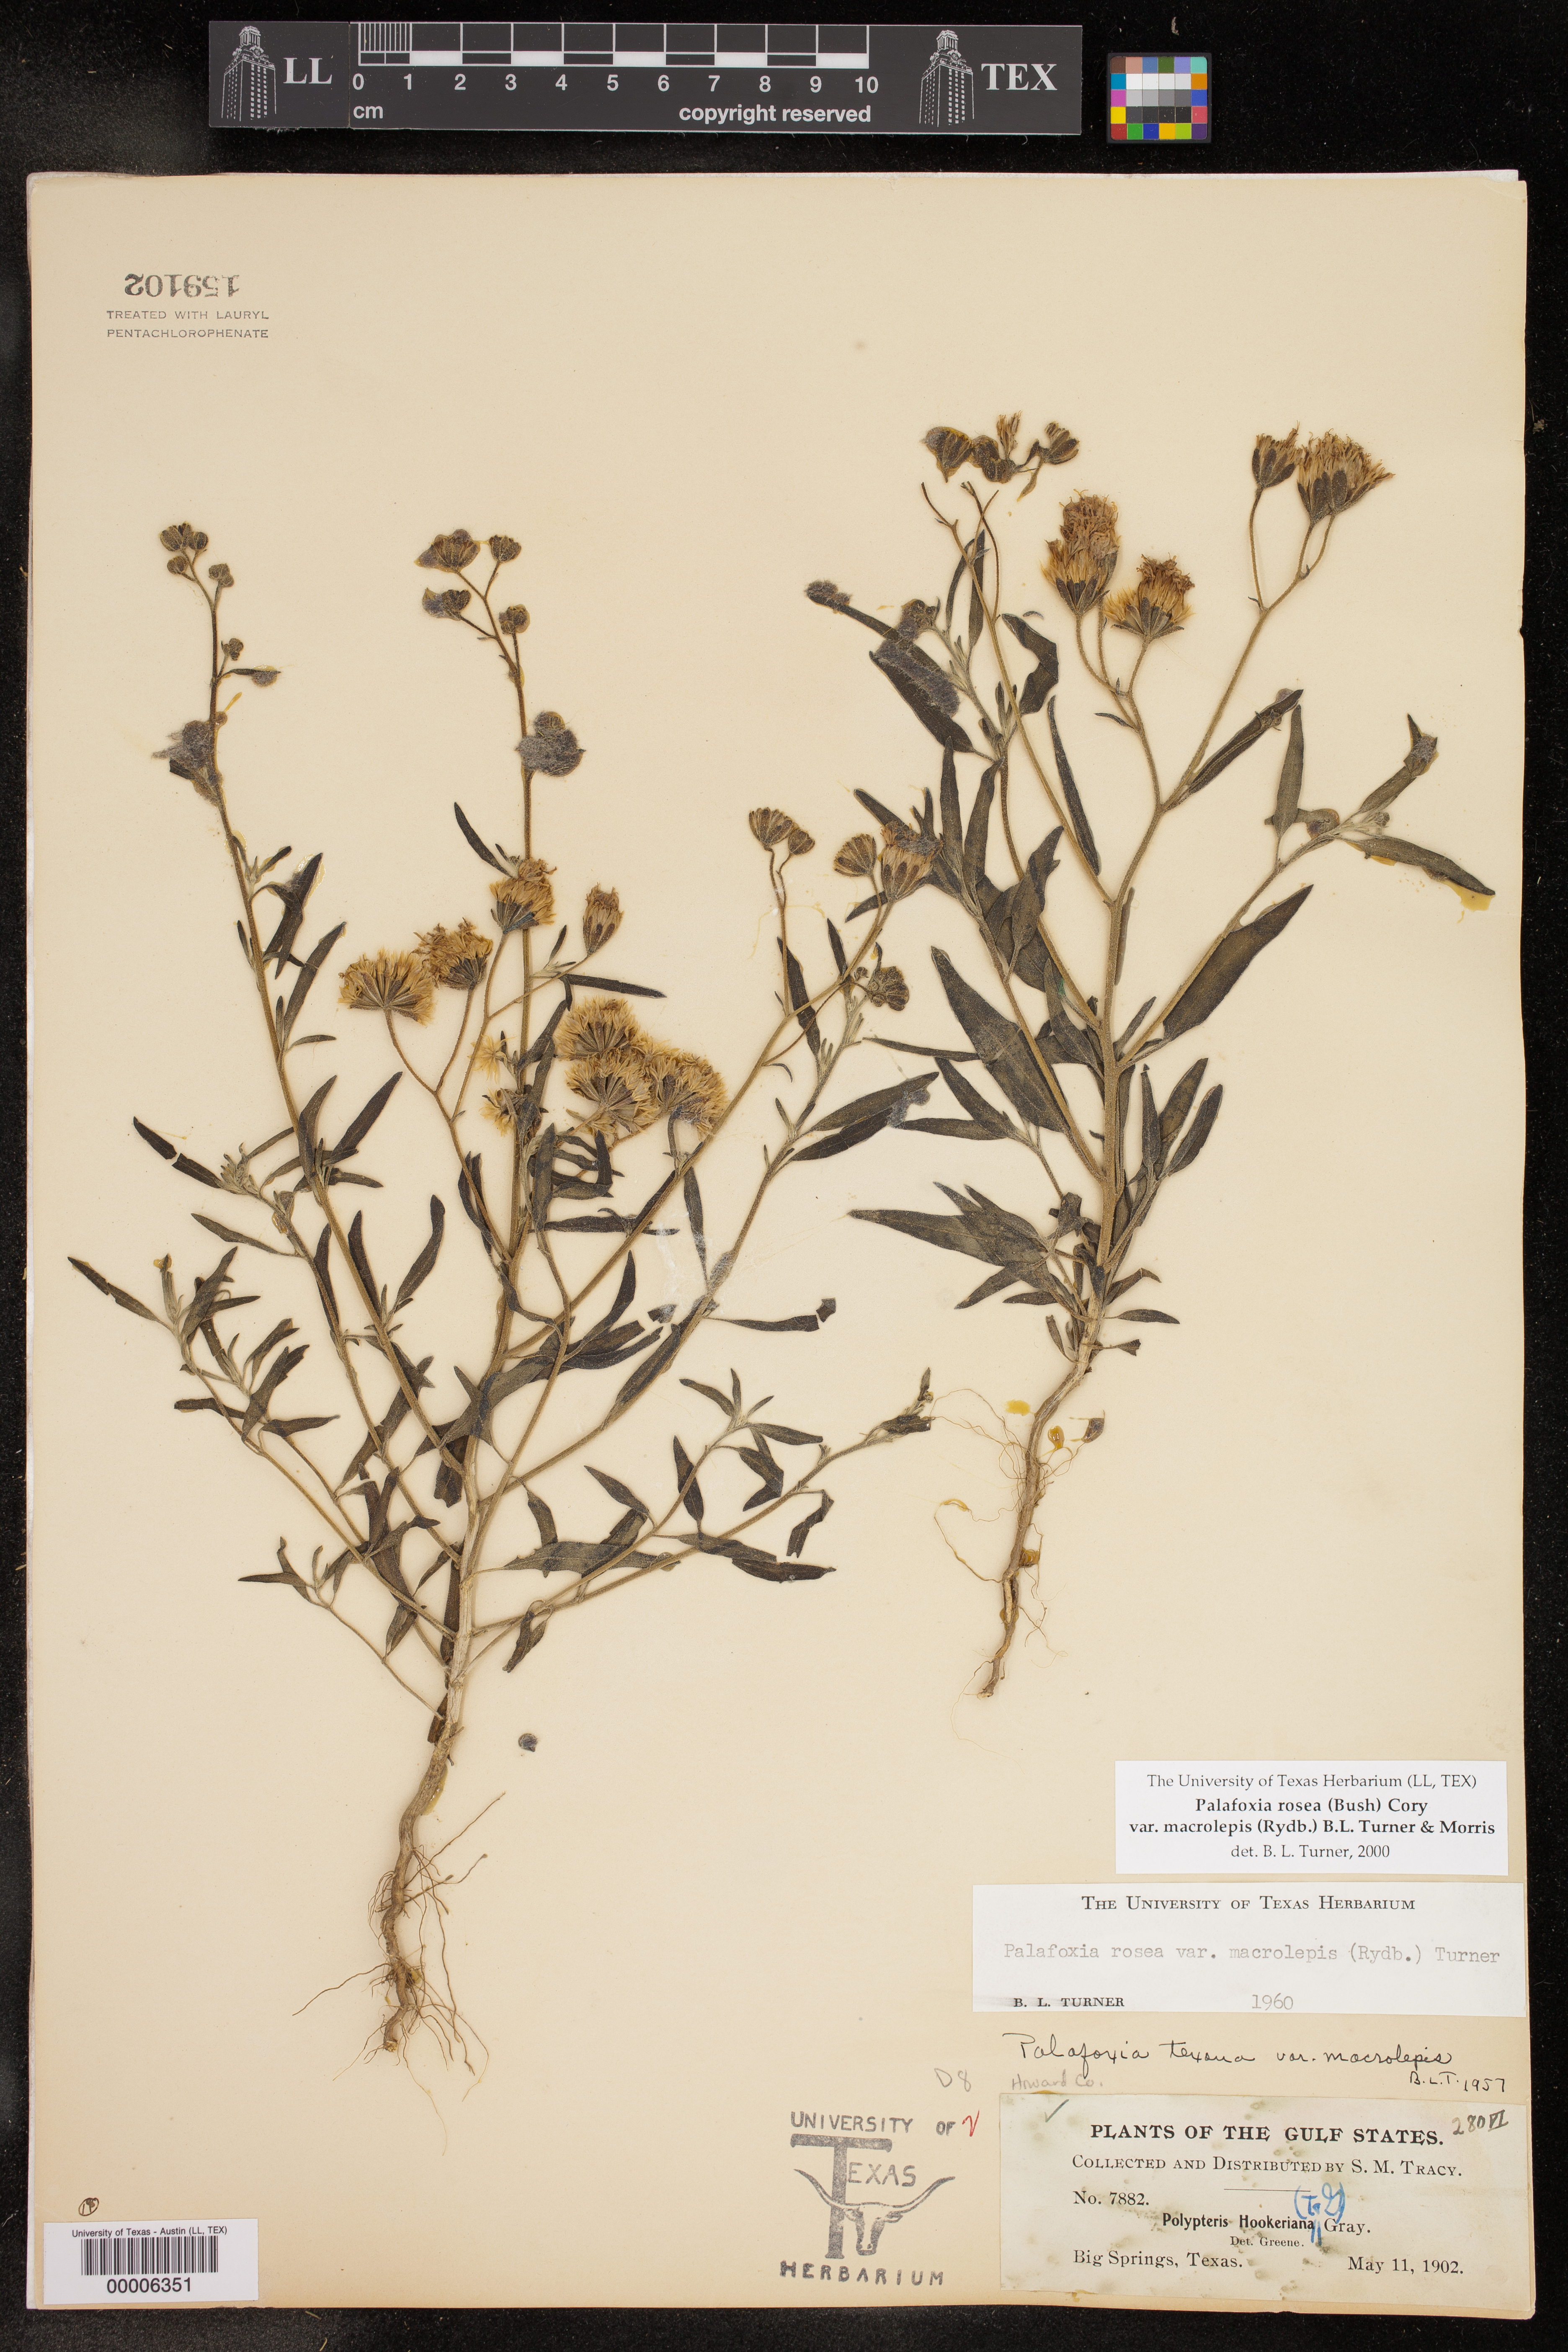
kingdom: Plantae
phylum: Tracheophyta
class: Magnoliopsida
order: Asterales
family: Asteraceae
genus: Palafoxia
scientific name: Palafoxia rosea
